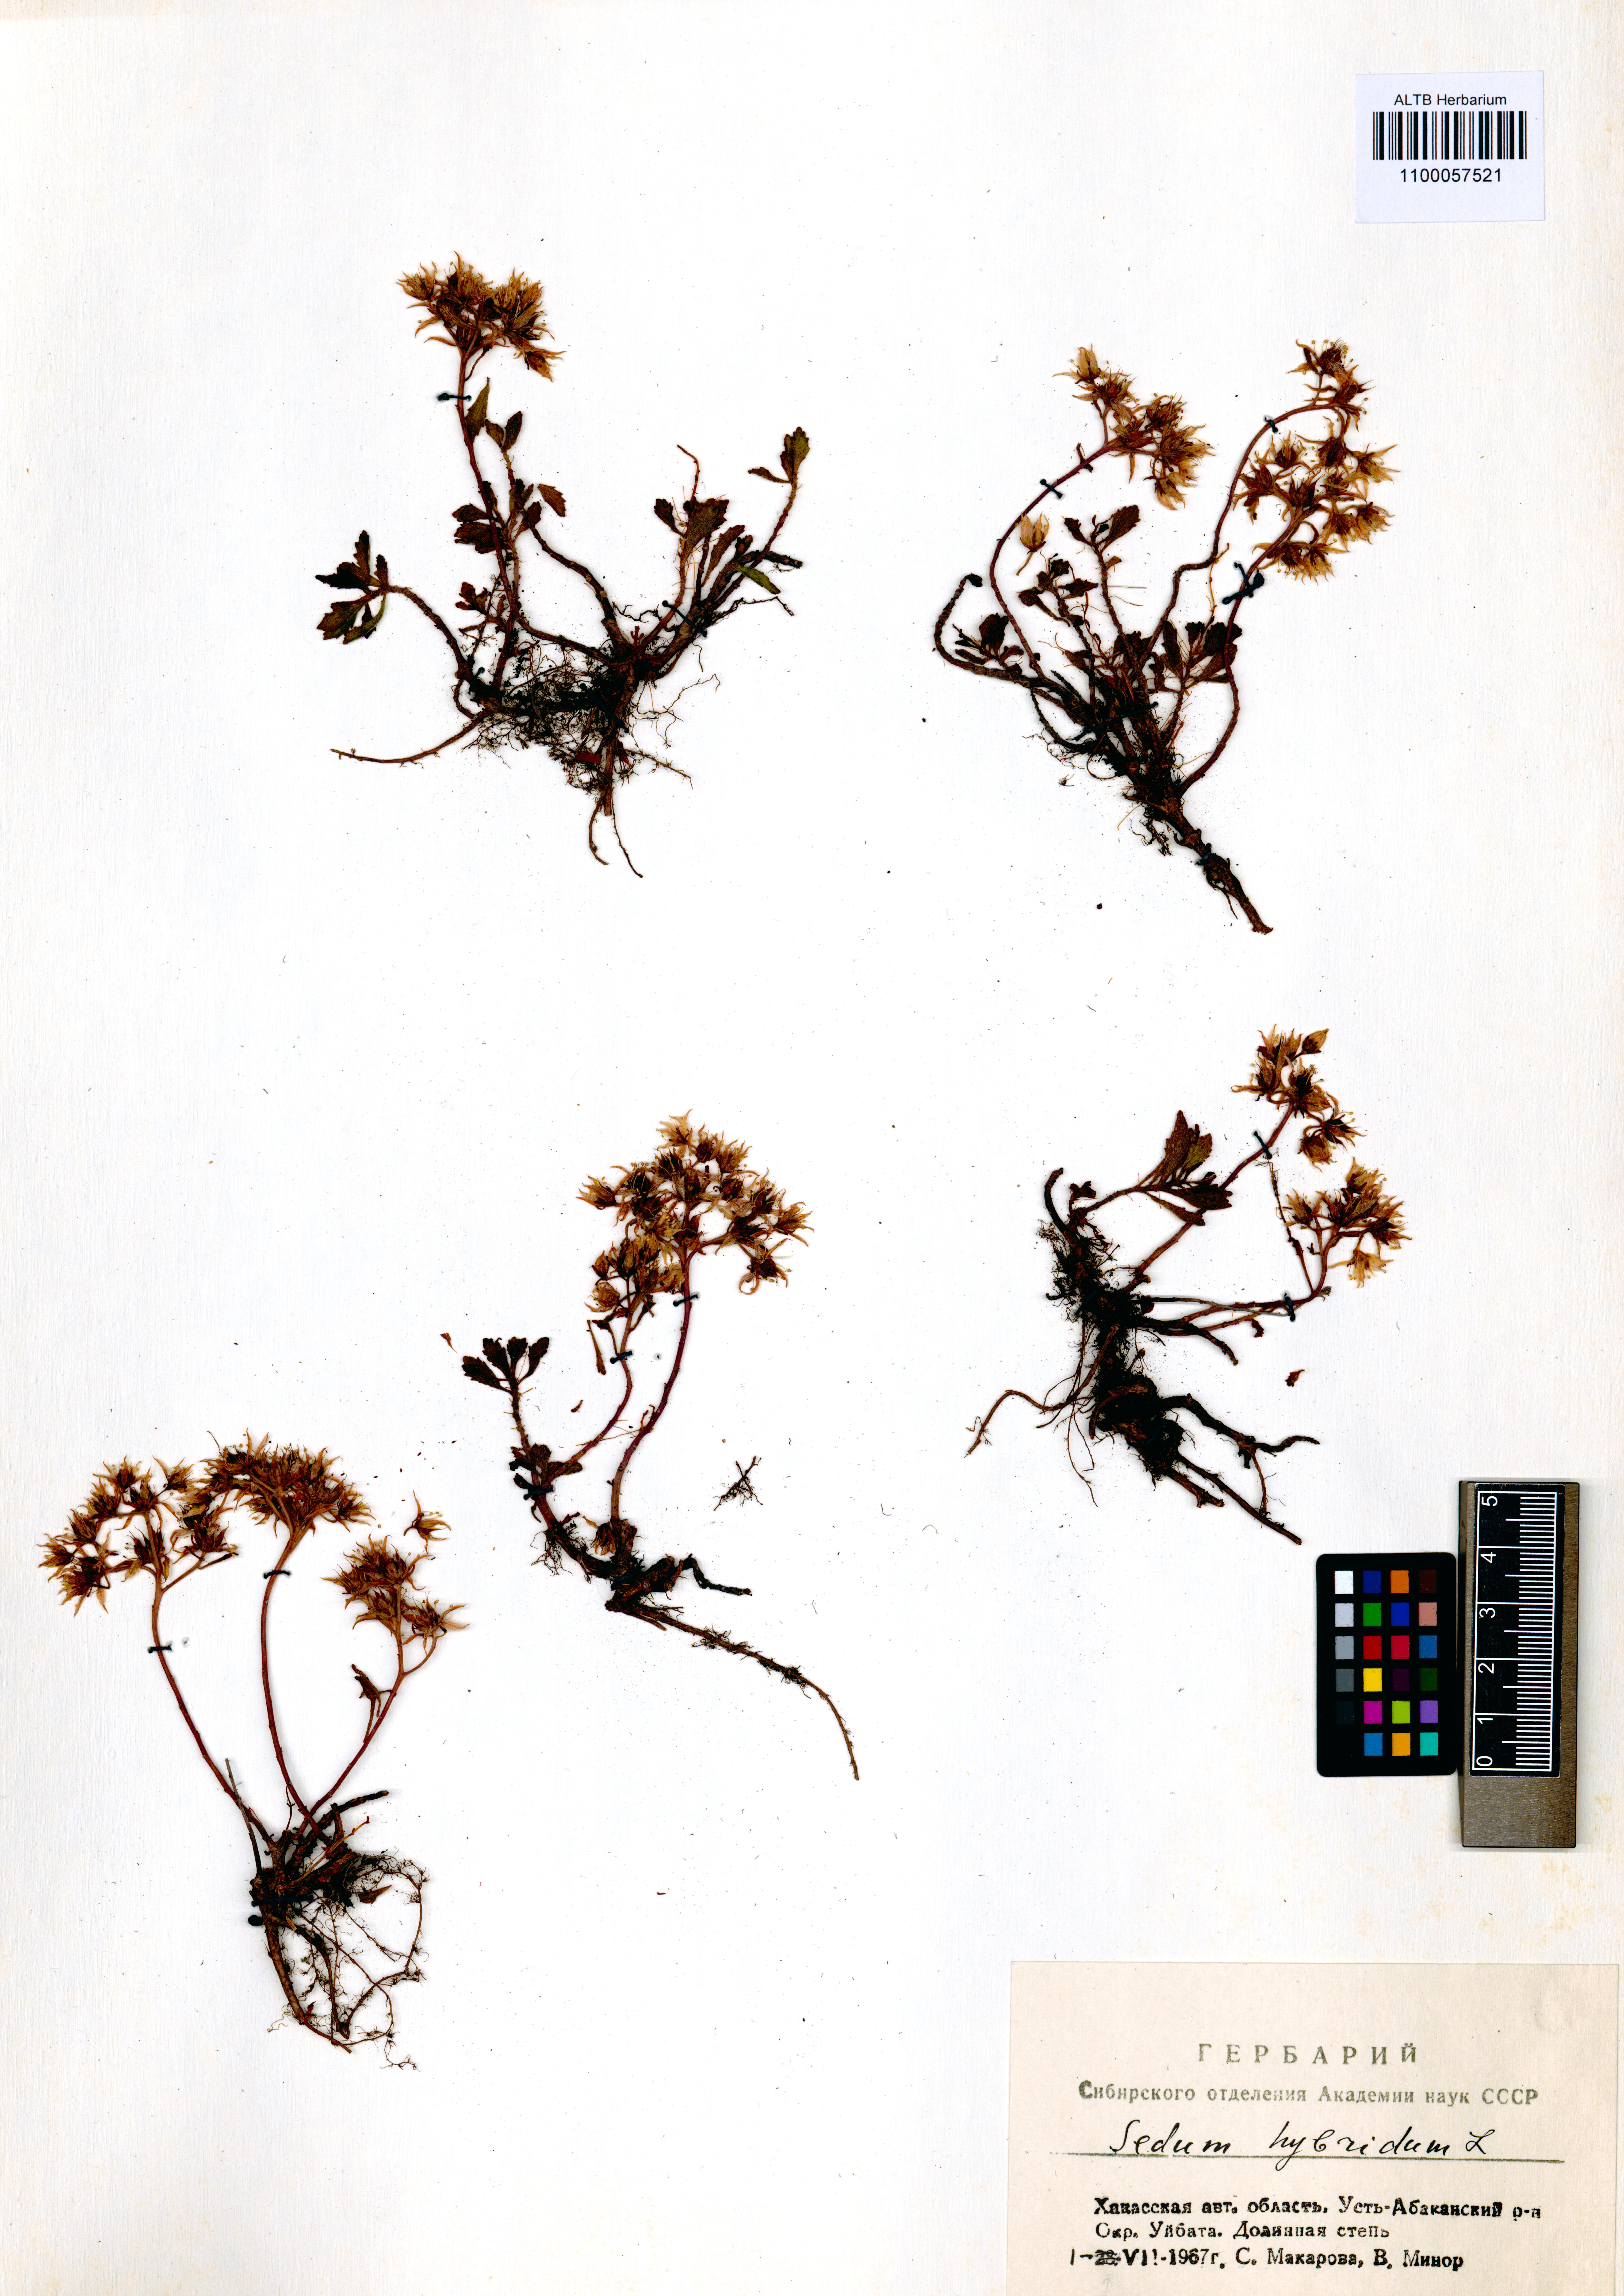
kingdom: Plantae
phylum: Tracheophyta
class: Magnoliopsida
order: Saxifragales
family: Crassulaceae
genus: Phedimus
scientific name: Phedimus hybridus
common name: Hybrid stonecrop
